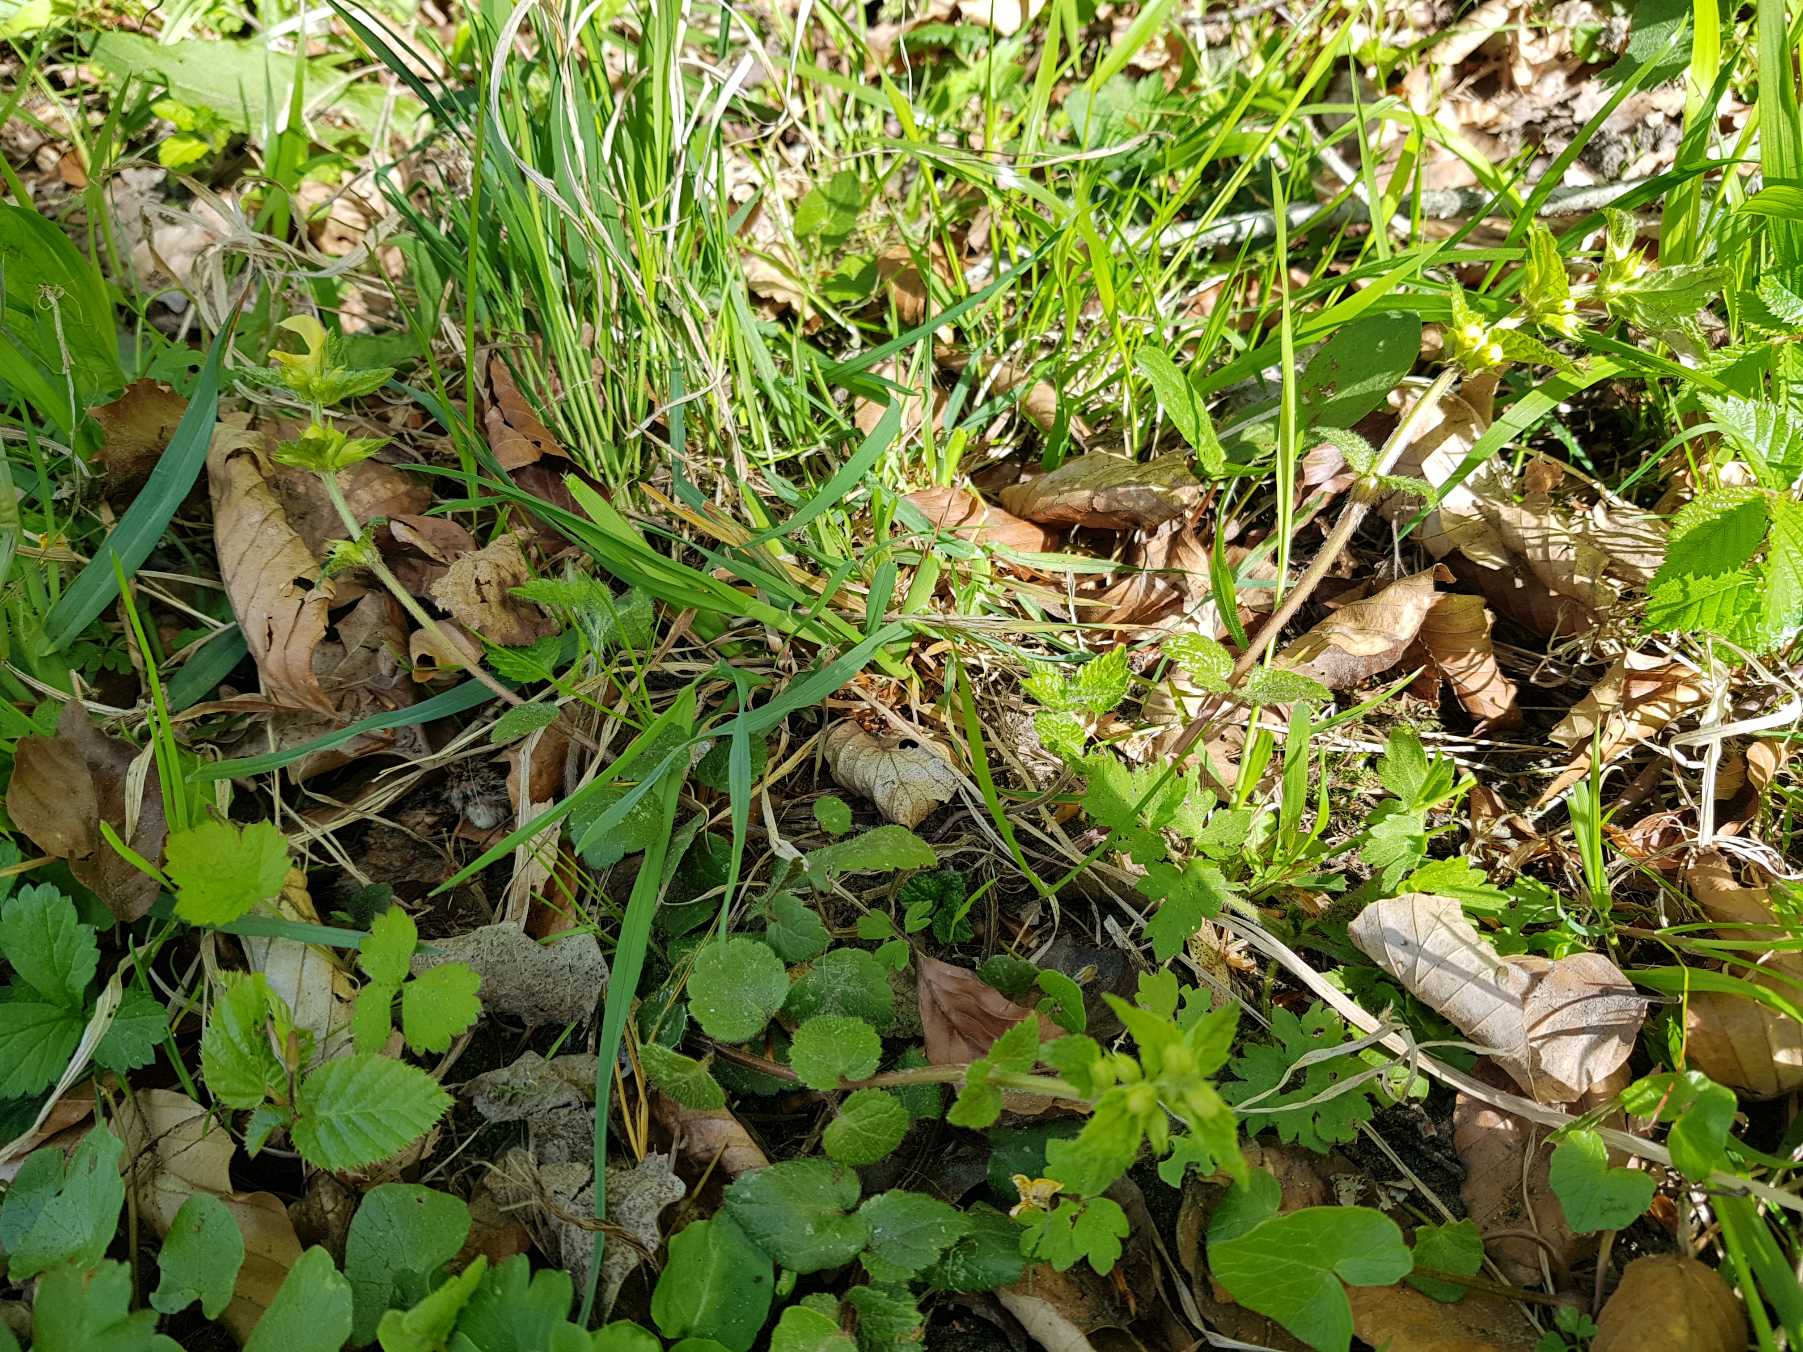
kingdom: Plantae
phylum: Tracheophyta
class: Magnoliopsida
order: Lamiales
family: Lamiaceae
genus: Lamium
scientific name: Lamium galeobdolon
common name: Almindelig guldnælde
